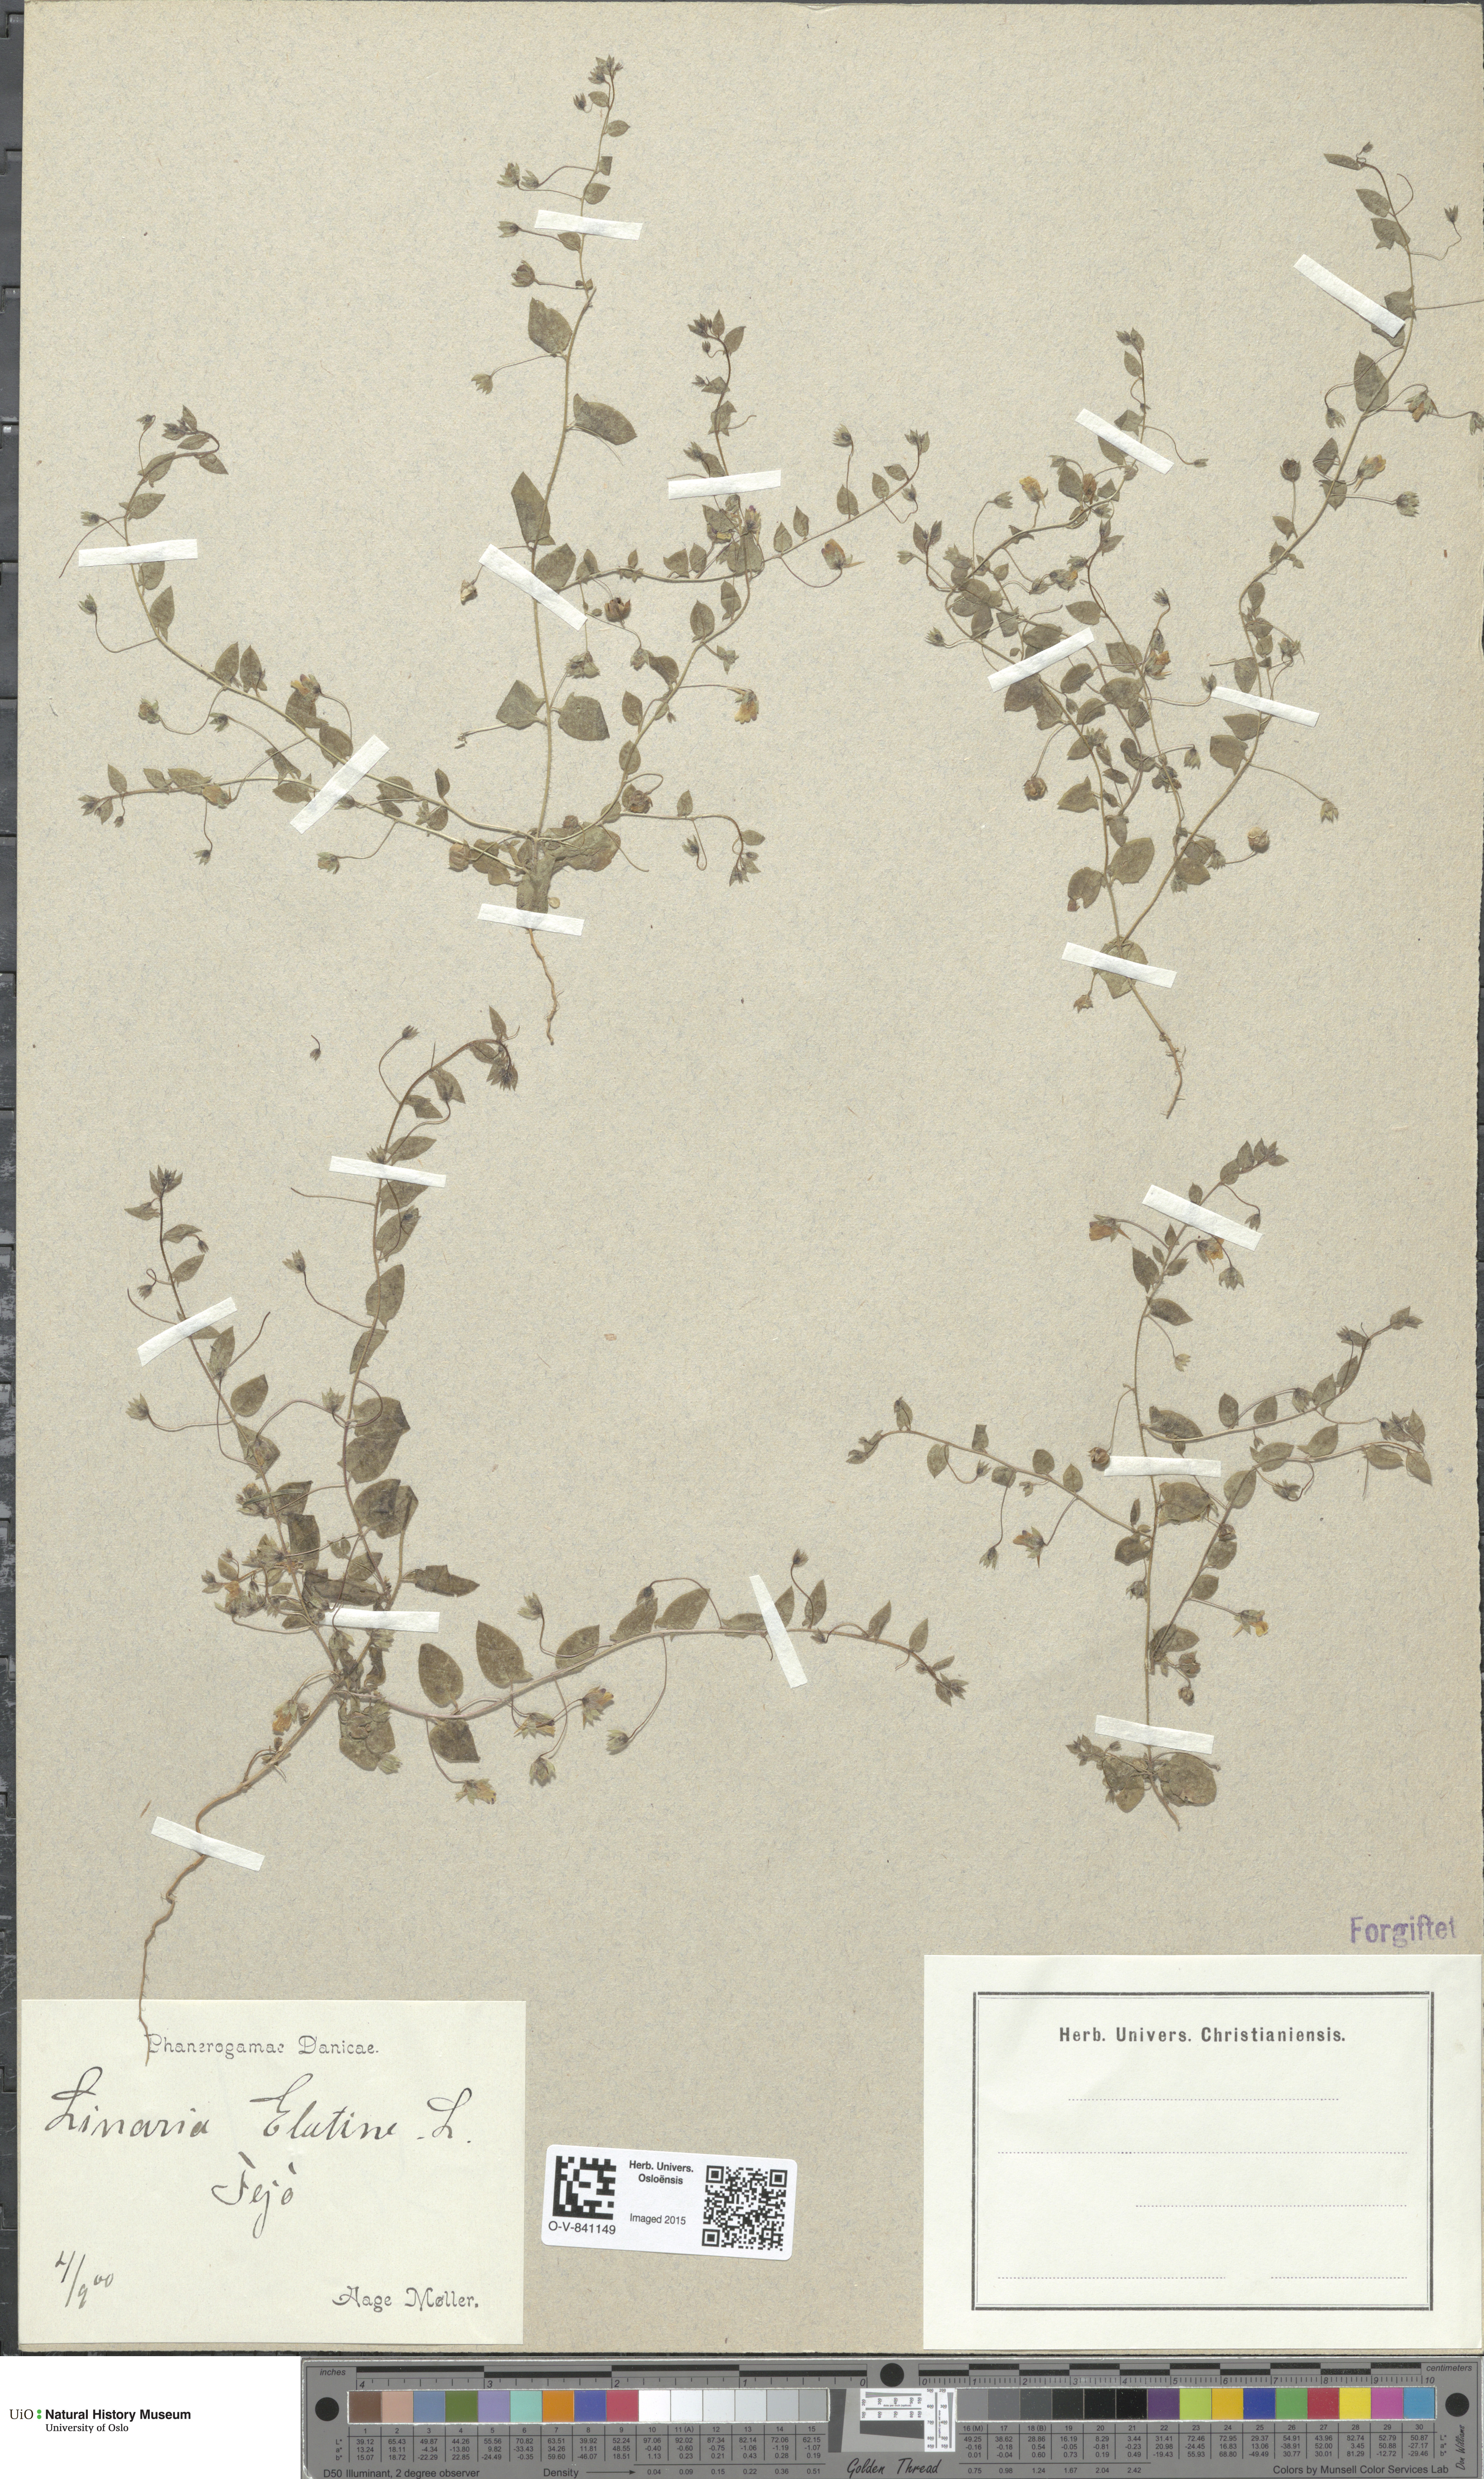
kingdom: Plantae
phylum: Tracheophyta
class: Magnoliopsida
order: Lamiales
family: Plantaginaceae
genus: Kickxia
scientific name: Kickxia elatine
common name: Sharp-leaved fluellen
